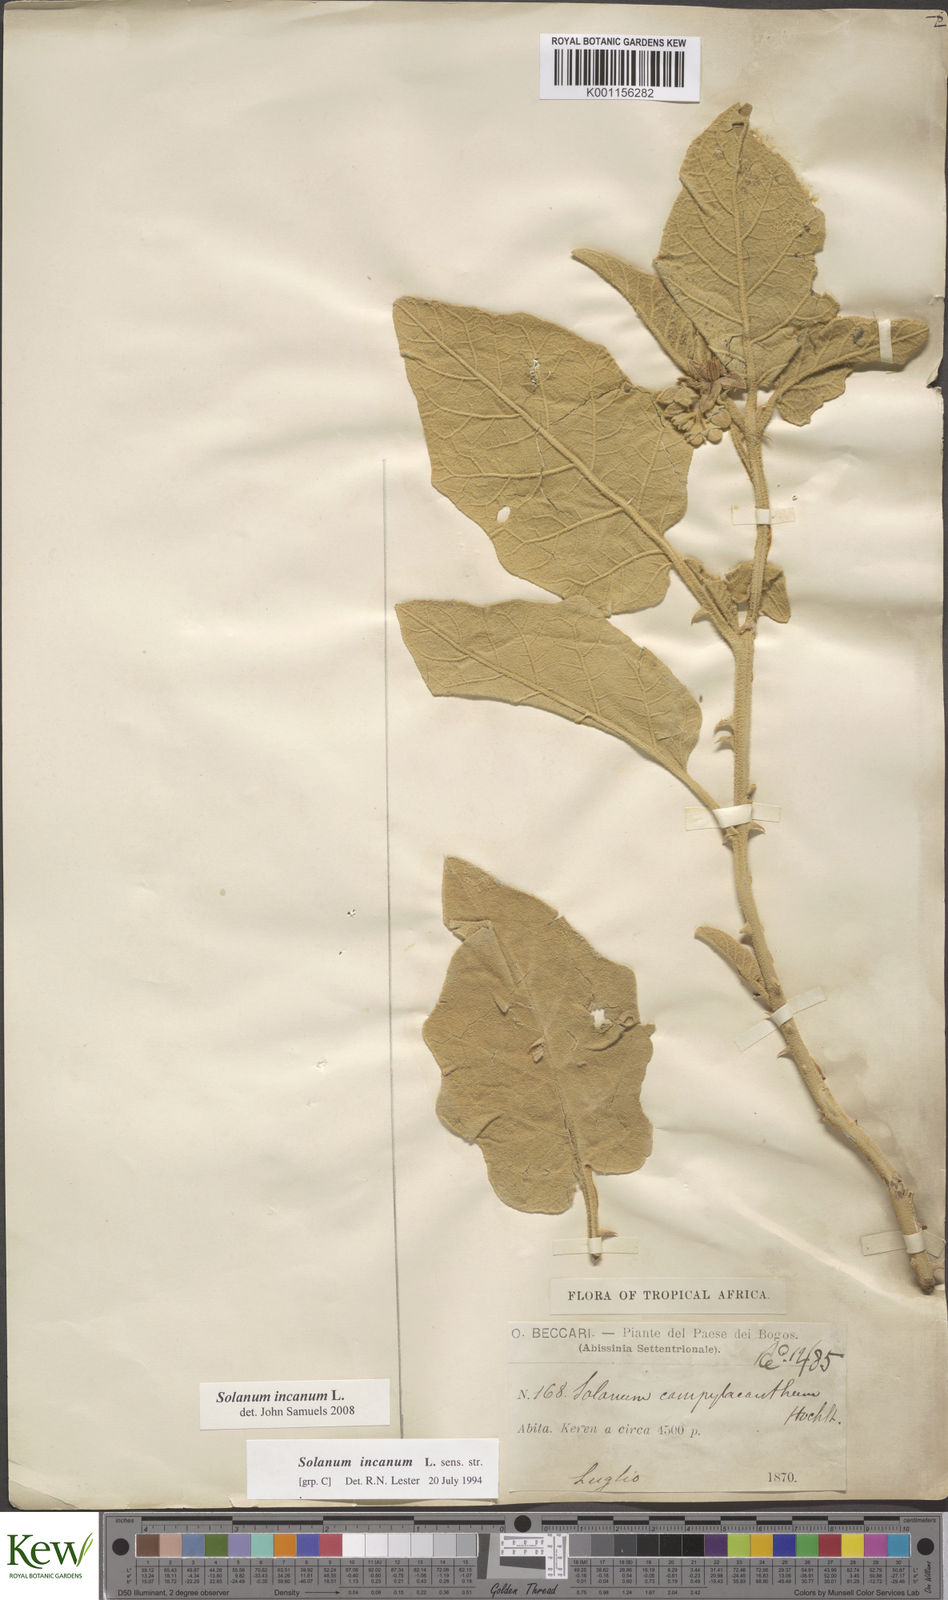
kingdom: Plantae
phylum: Tracheophyta
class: Magnoliopsida
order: Solanales
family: Solanaceae
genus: Solanum
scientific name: Solanum incanum
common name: Bitter apple
